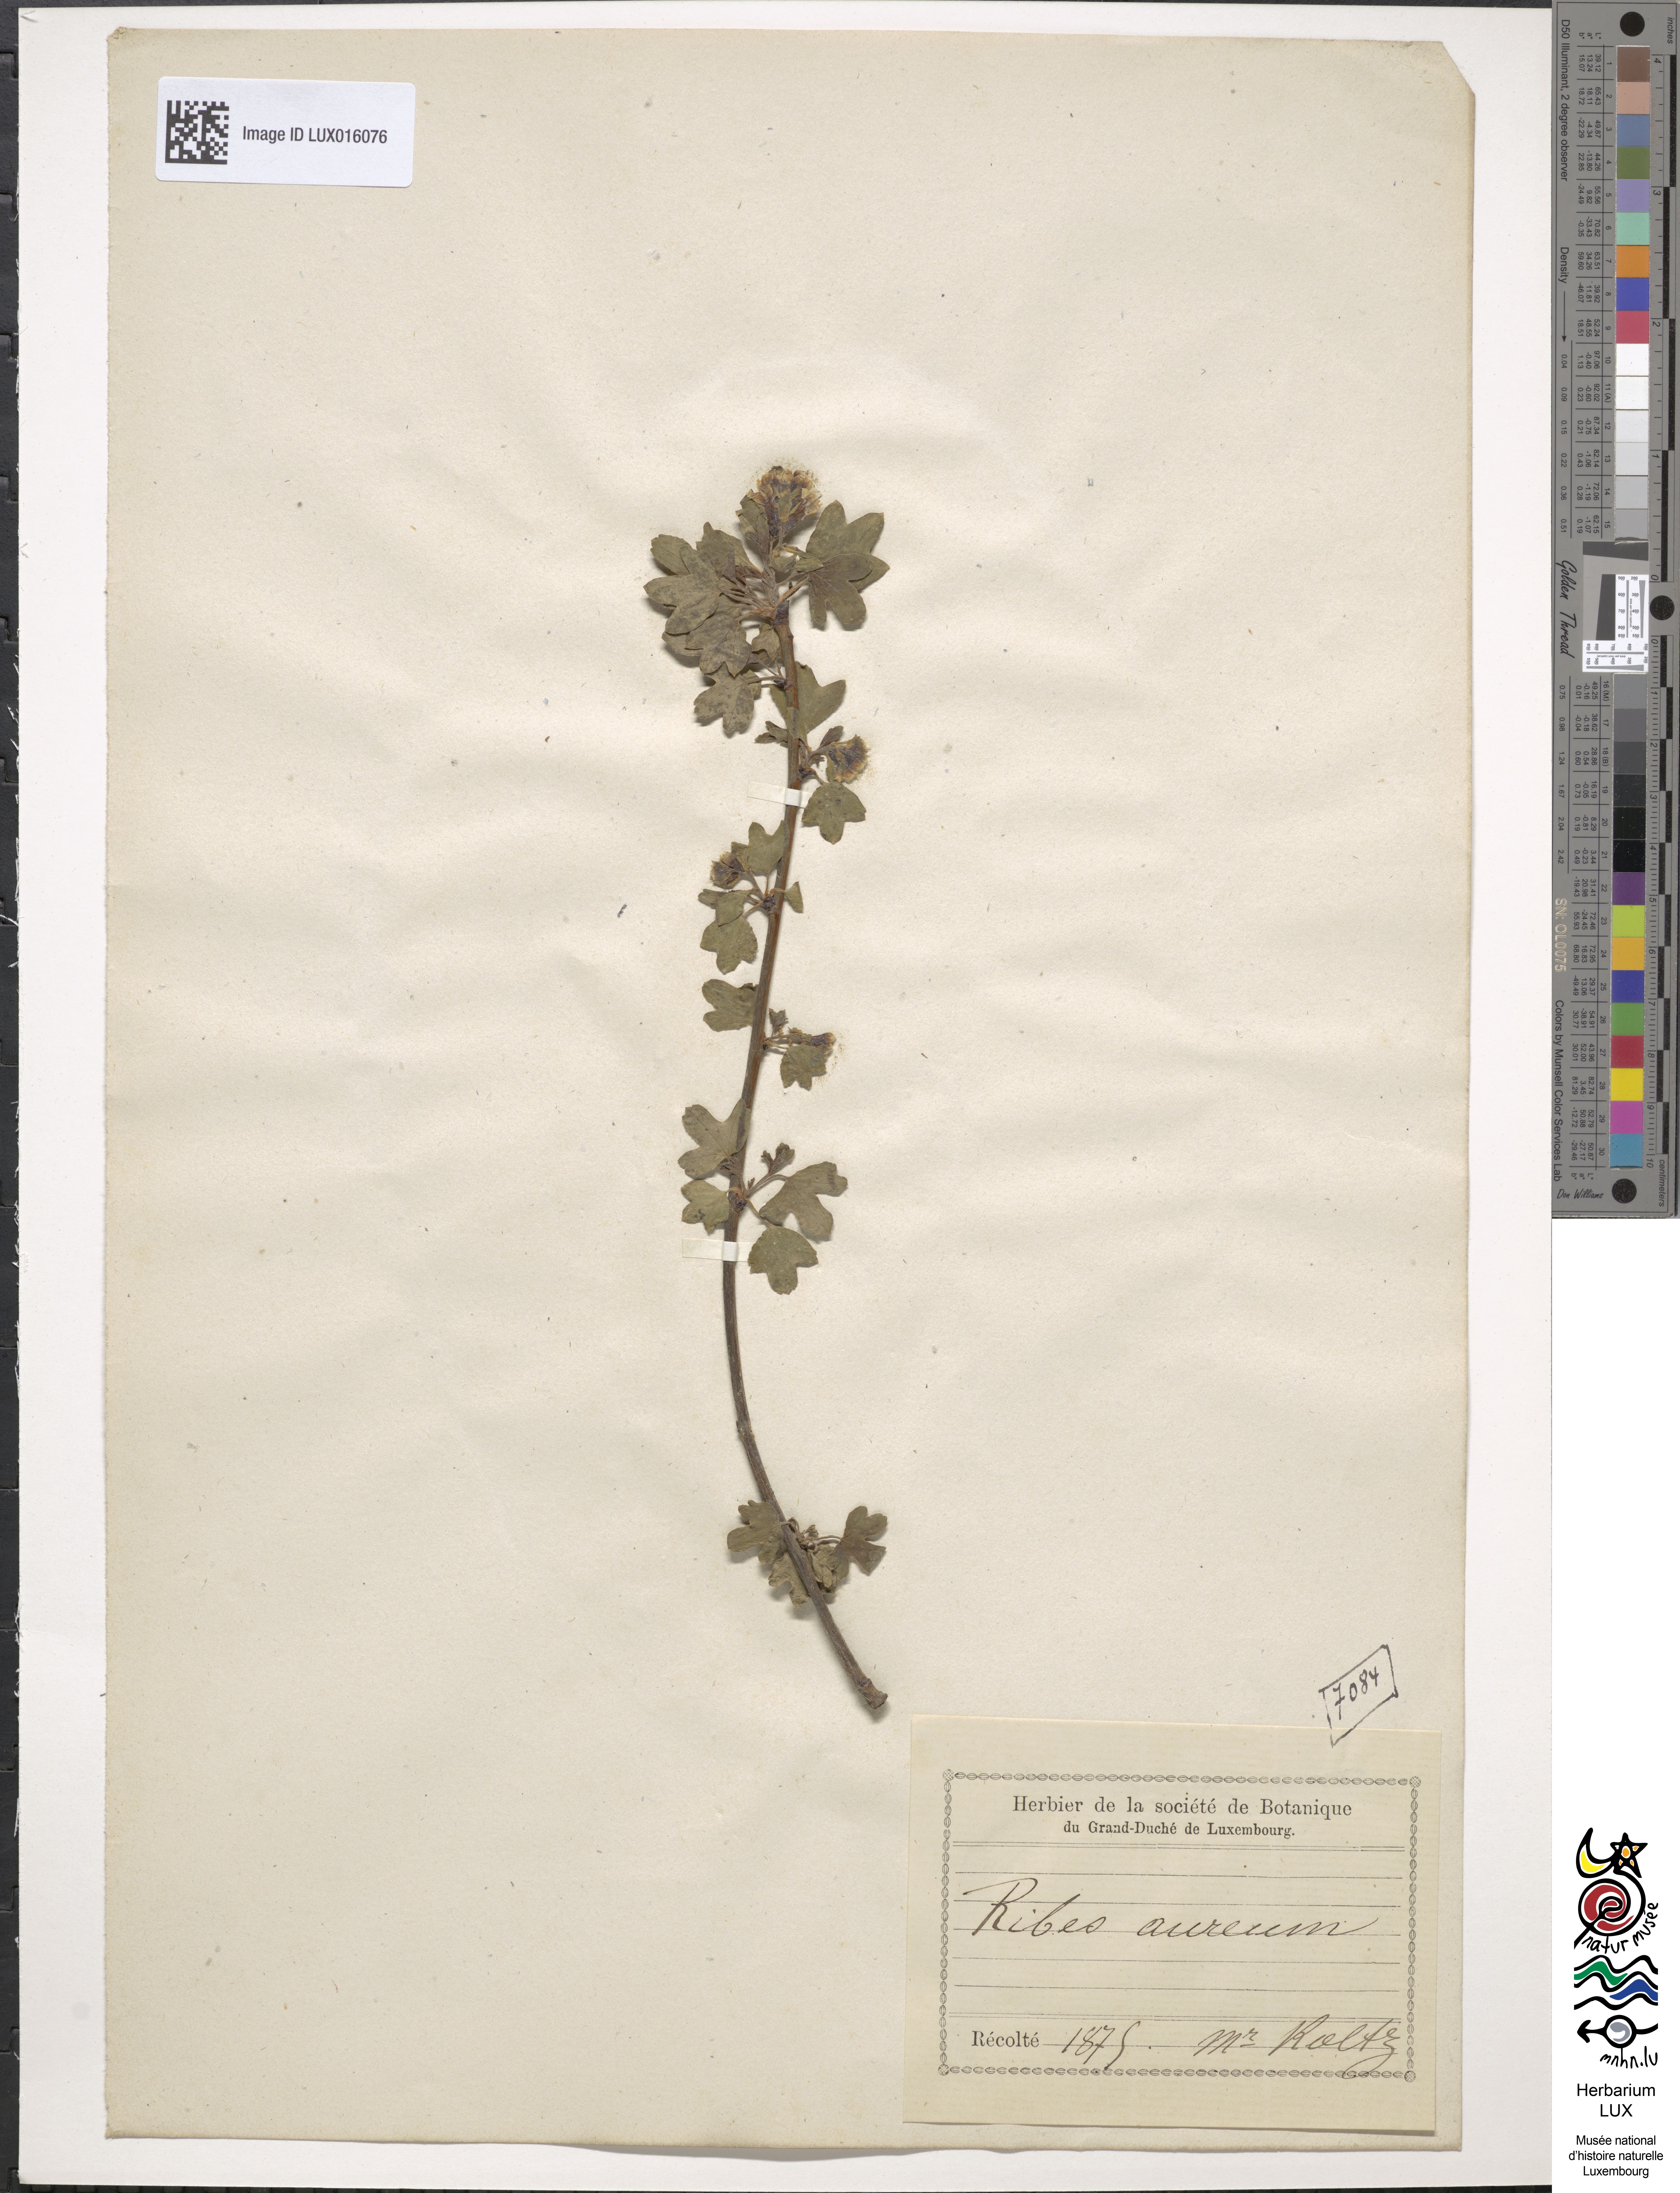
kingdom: Plantae
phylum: Tracheophyta
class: Magnoliopsida
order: Saxifragales
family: Grossulariaceae
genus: Ribes
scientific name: Ribes aureum
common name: Golden currant
